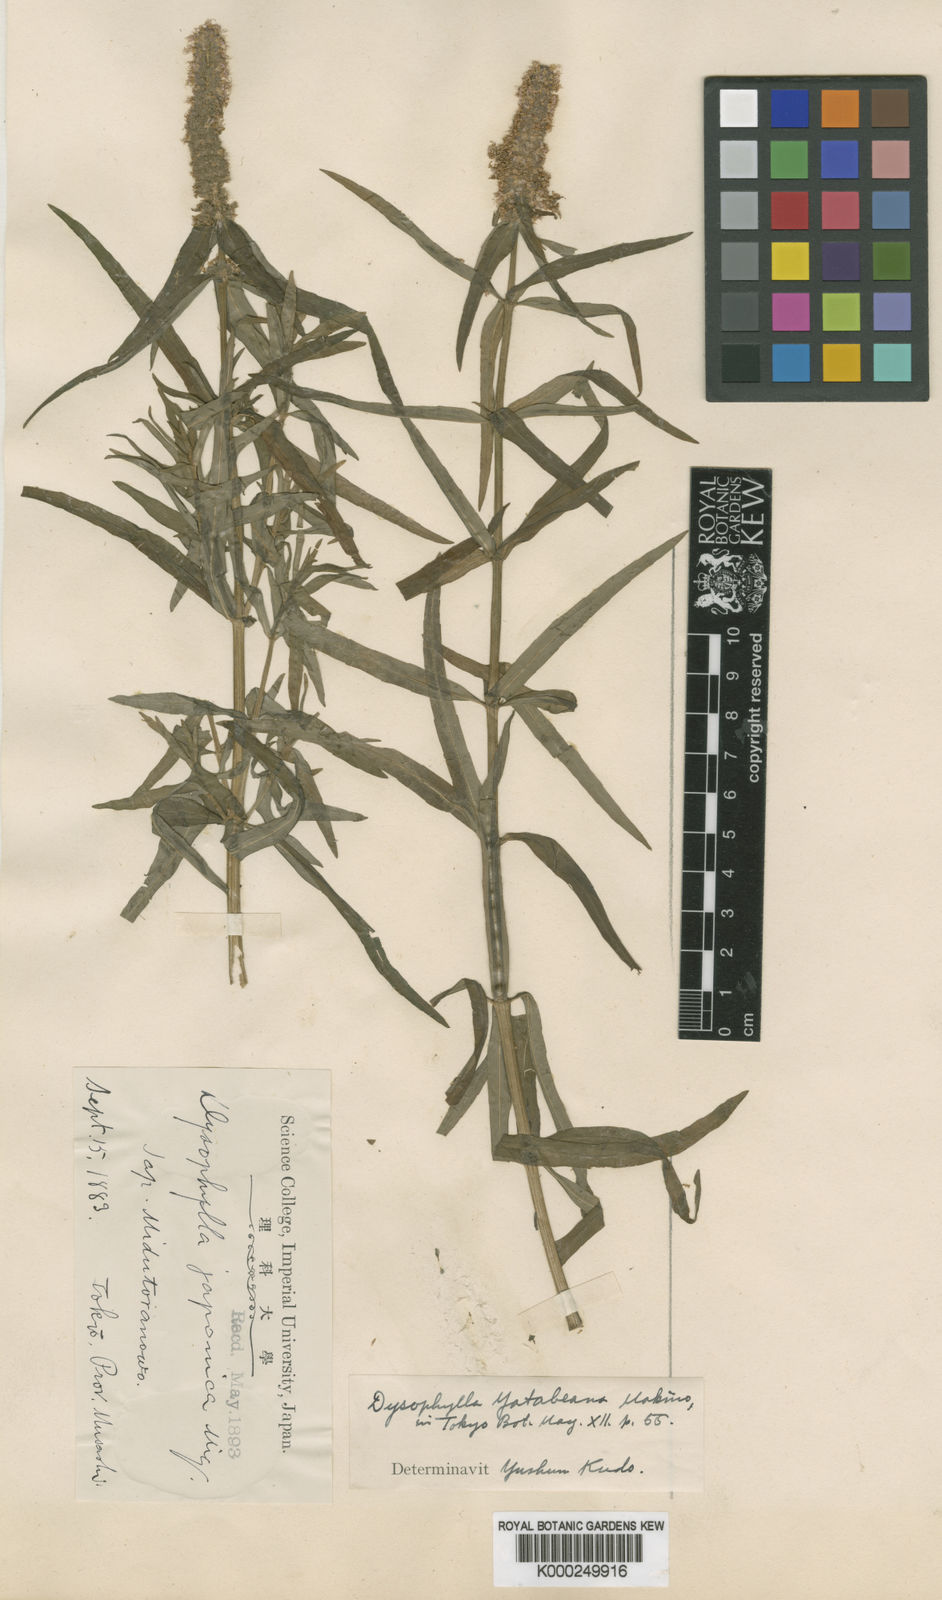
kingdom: Plantae
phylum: Tracheophyta
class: Magnoliopsida
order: Lamiales
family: Lamiaceae
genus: Pogostemon
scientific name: Pogostemon yatabeanus
